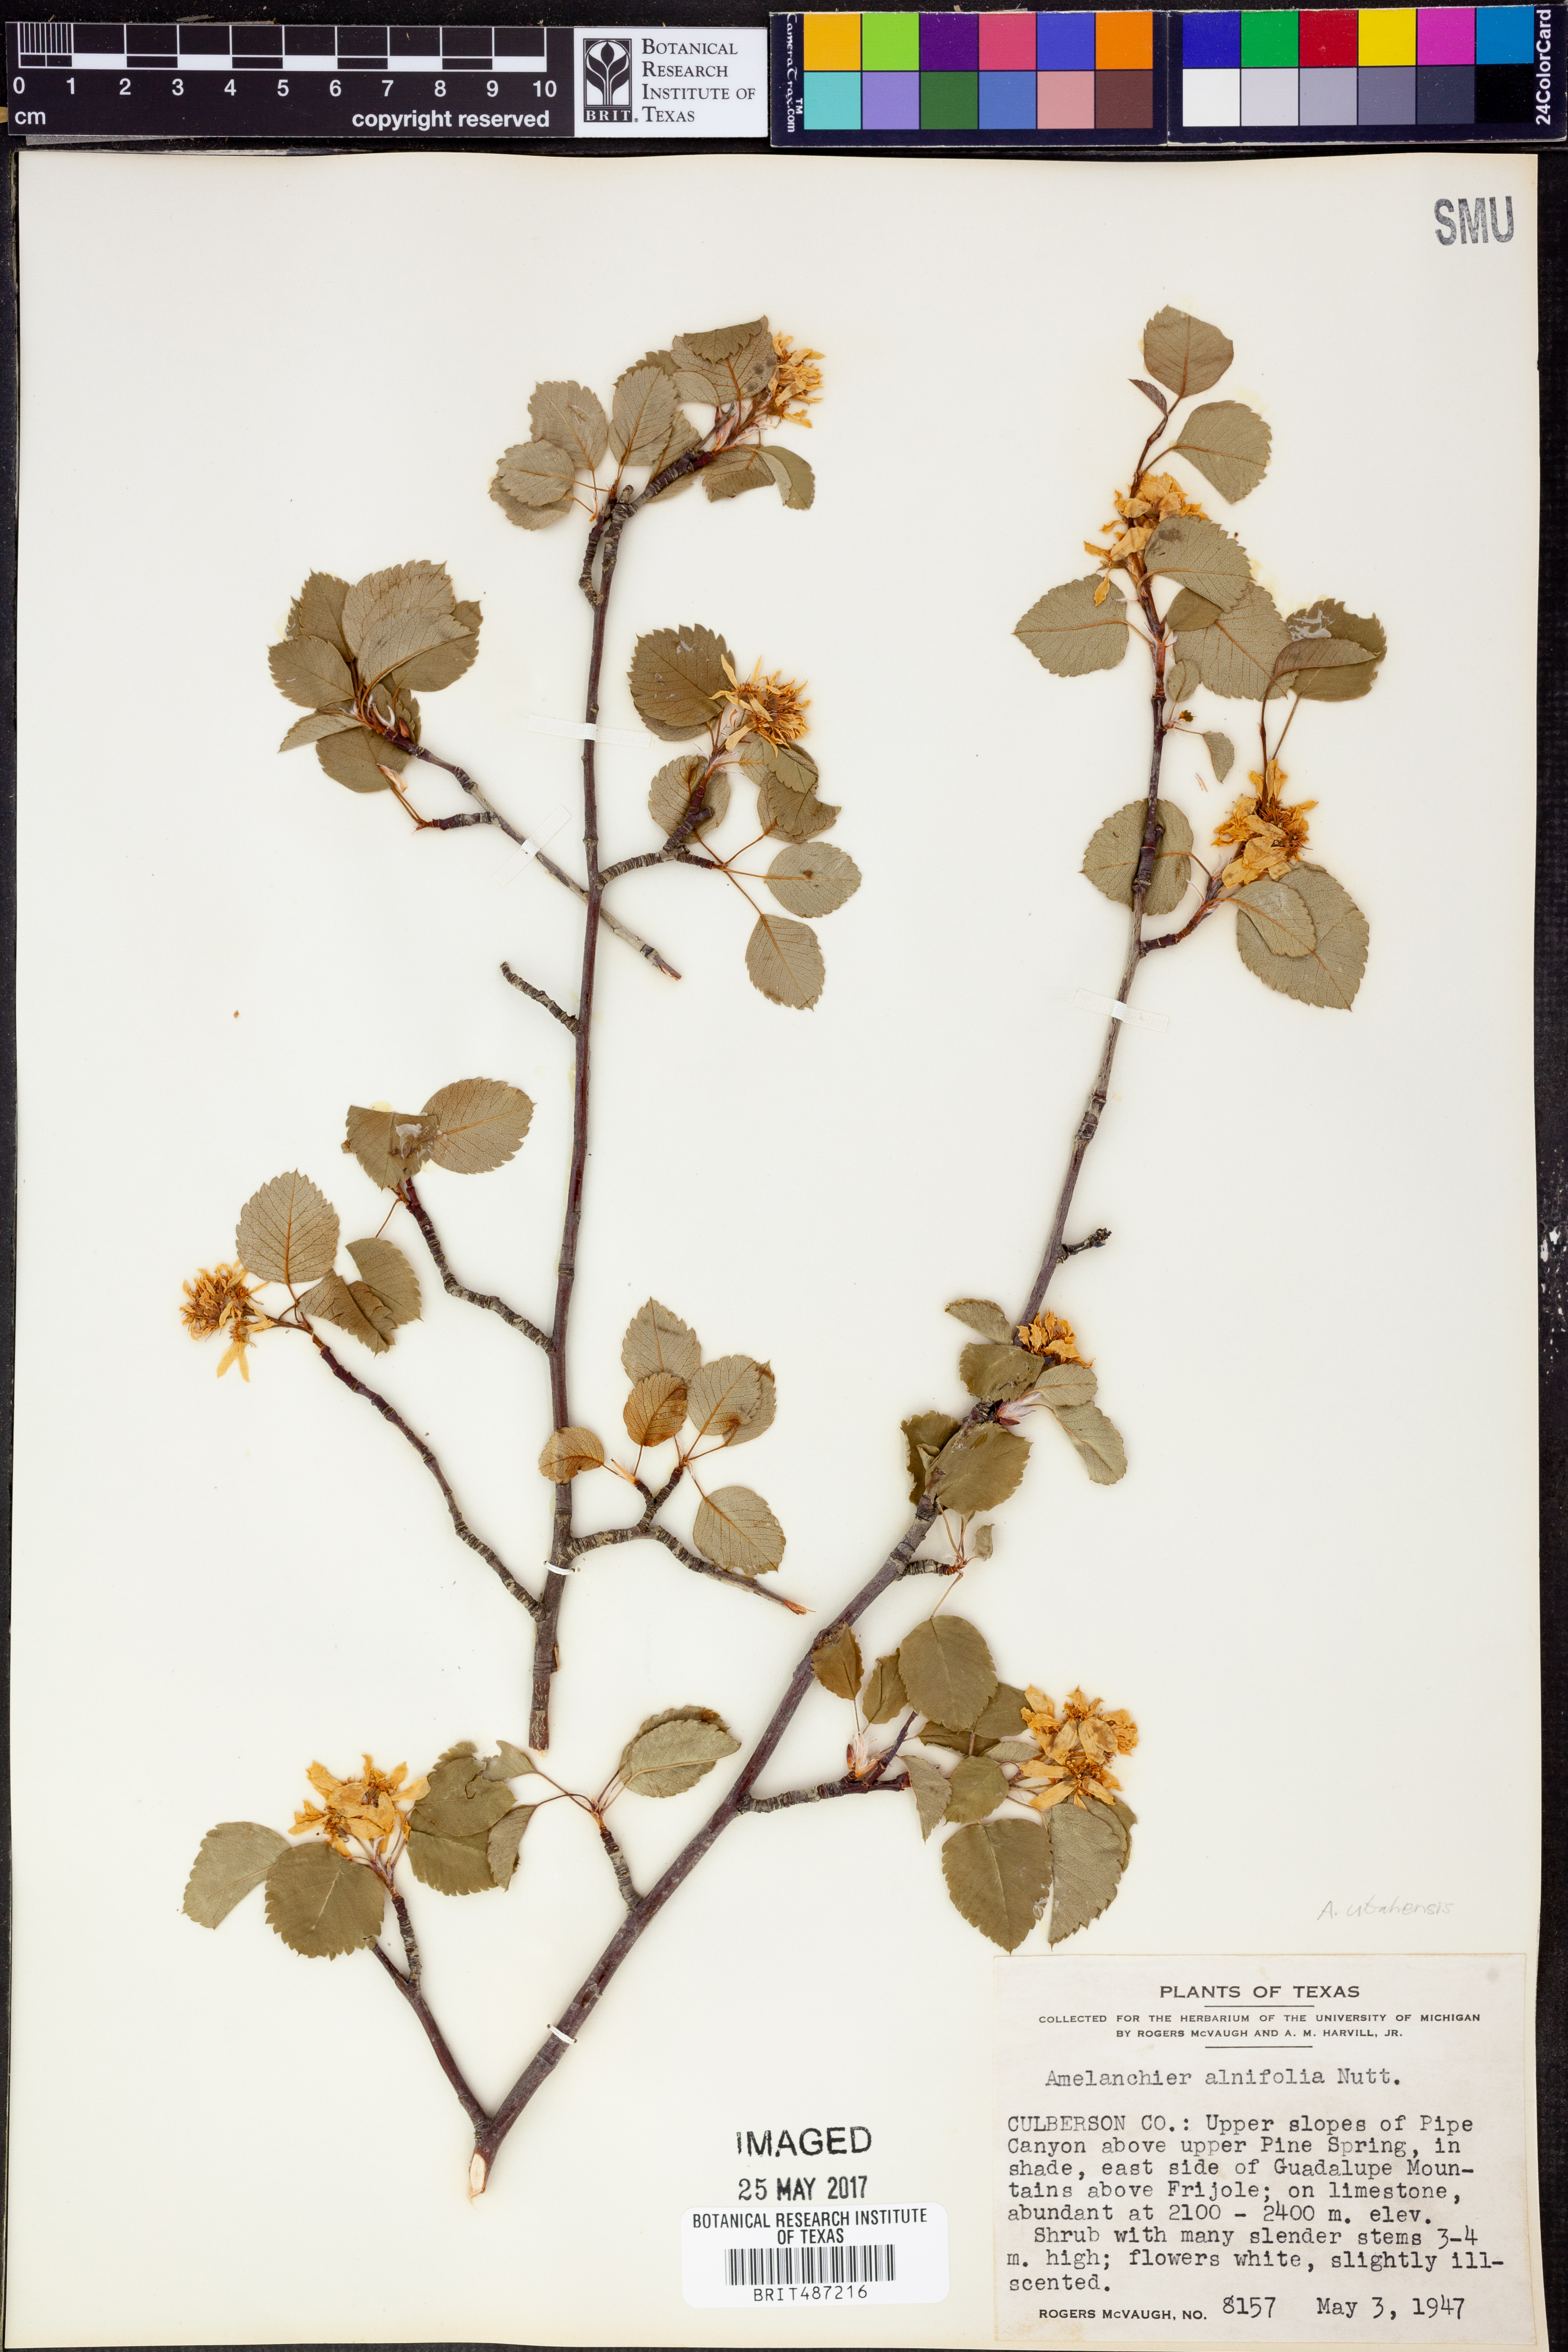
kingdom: Plantae
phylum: Tracheophyta
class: Magnoliopsida
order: Rosales
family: Rosaceae
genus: Amelanchier
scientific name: Amelanchier alnifolia
